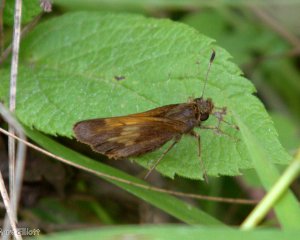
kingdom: Animalia
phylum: Arthropoda
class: Insecta
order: Lepidoptera
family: Hesperiidae
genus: Lon
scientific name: Lon hobomok
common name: Hobomok Skipper
